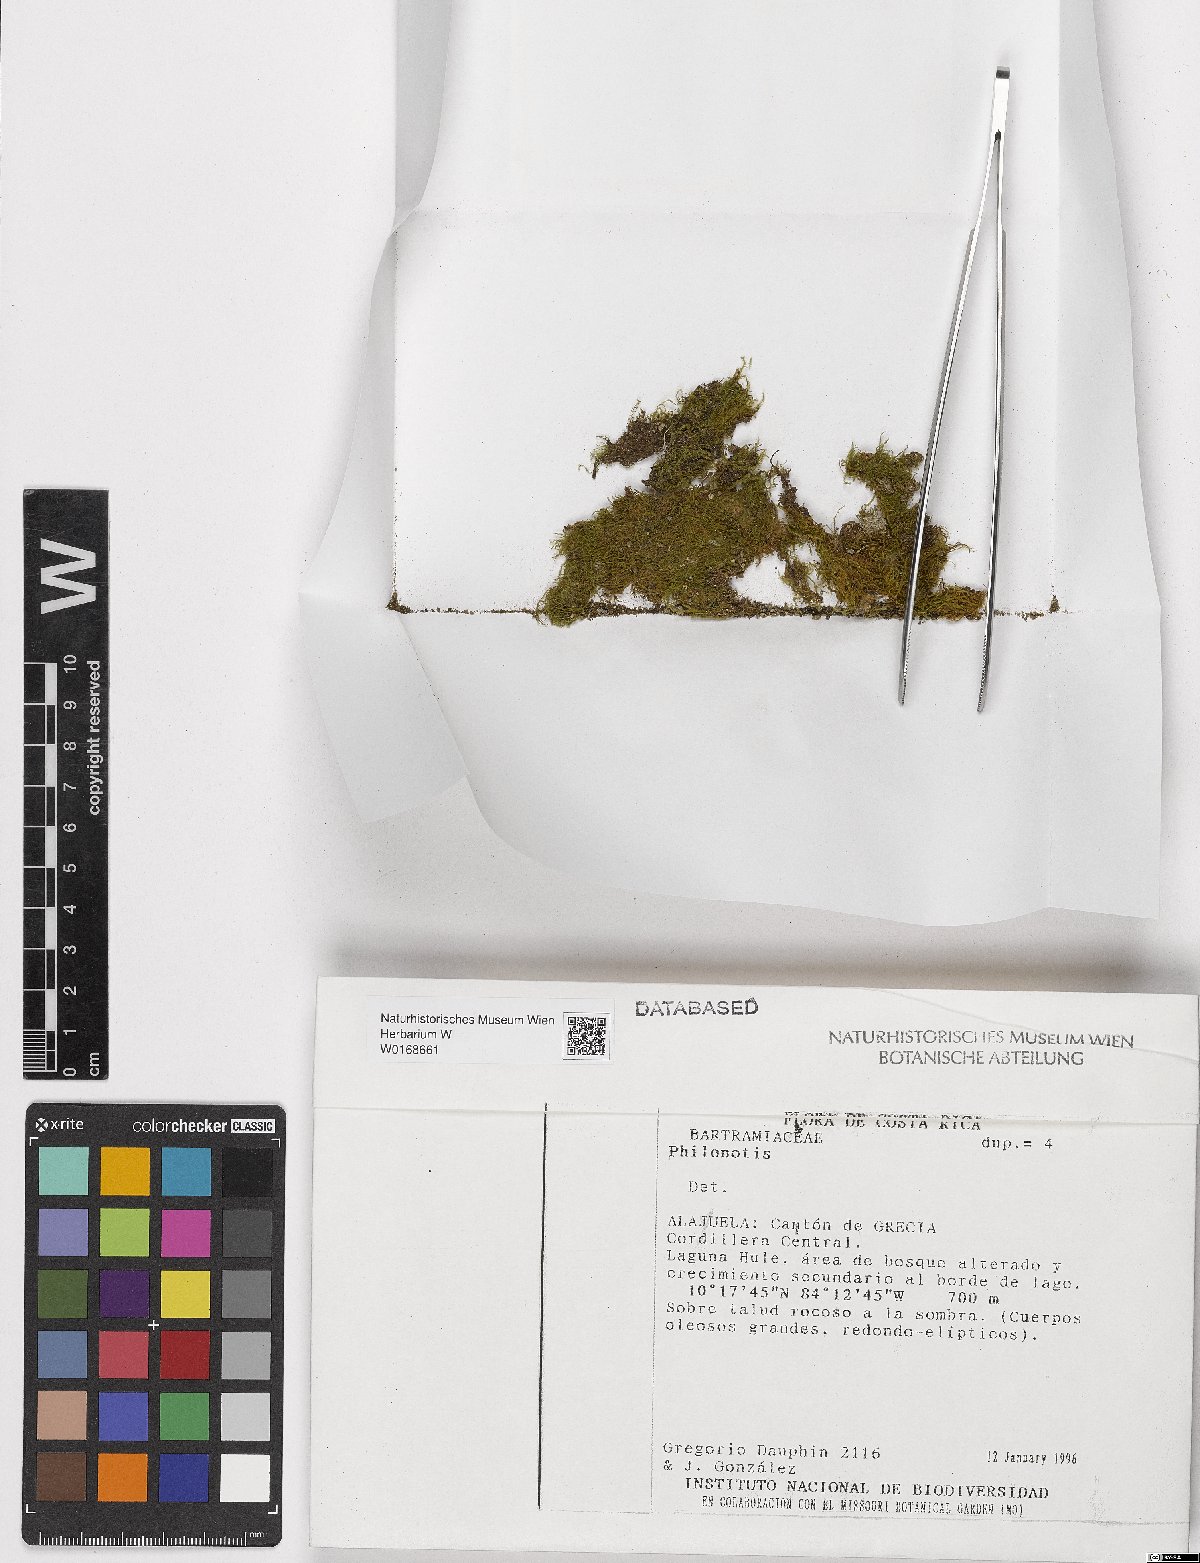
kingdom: Plantae
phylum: Bryophyta
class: Bryopsida
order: Bartramiales
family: Bartramiaceae
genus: Philonotis
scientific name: Philonotis
